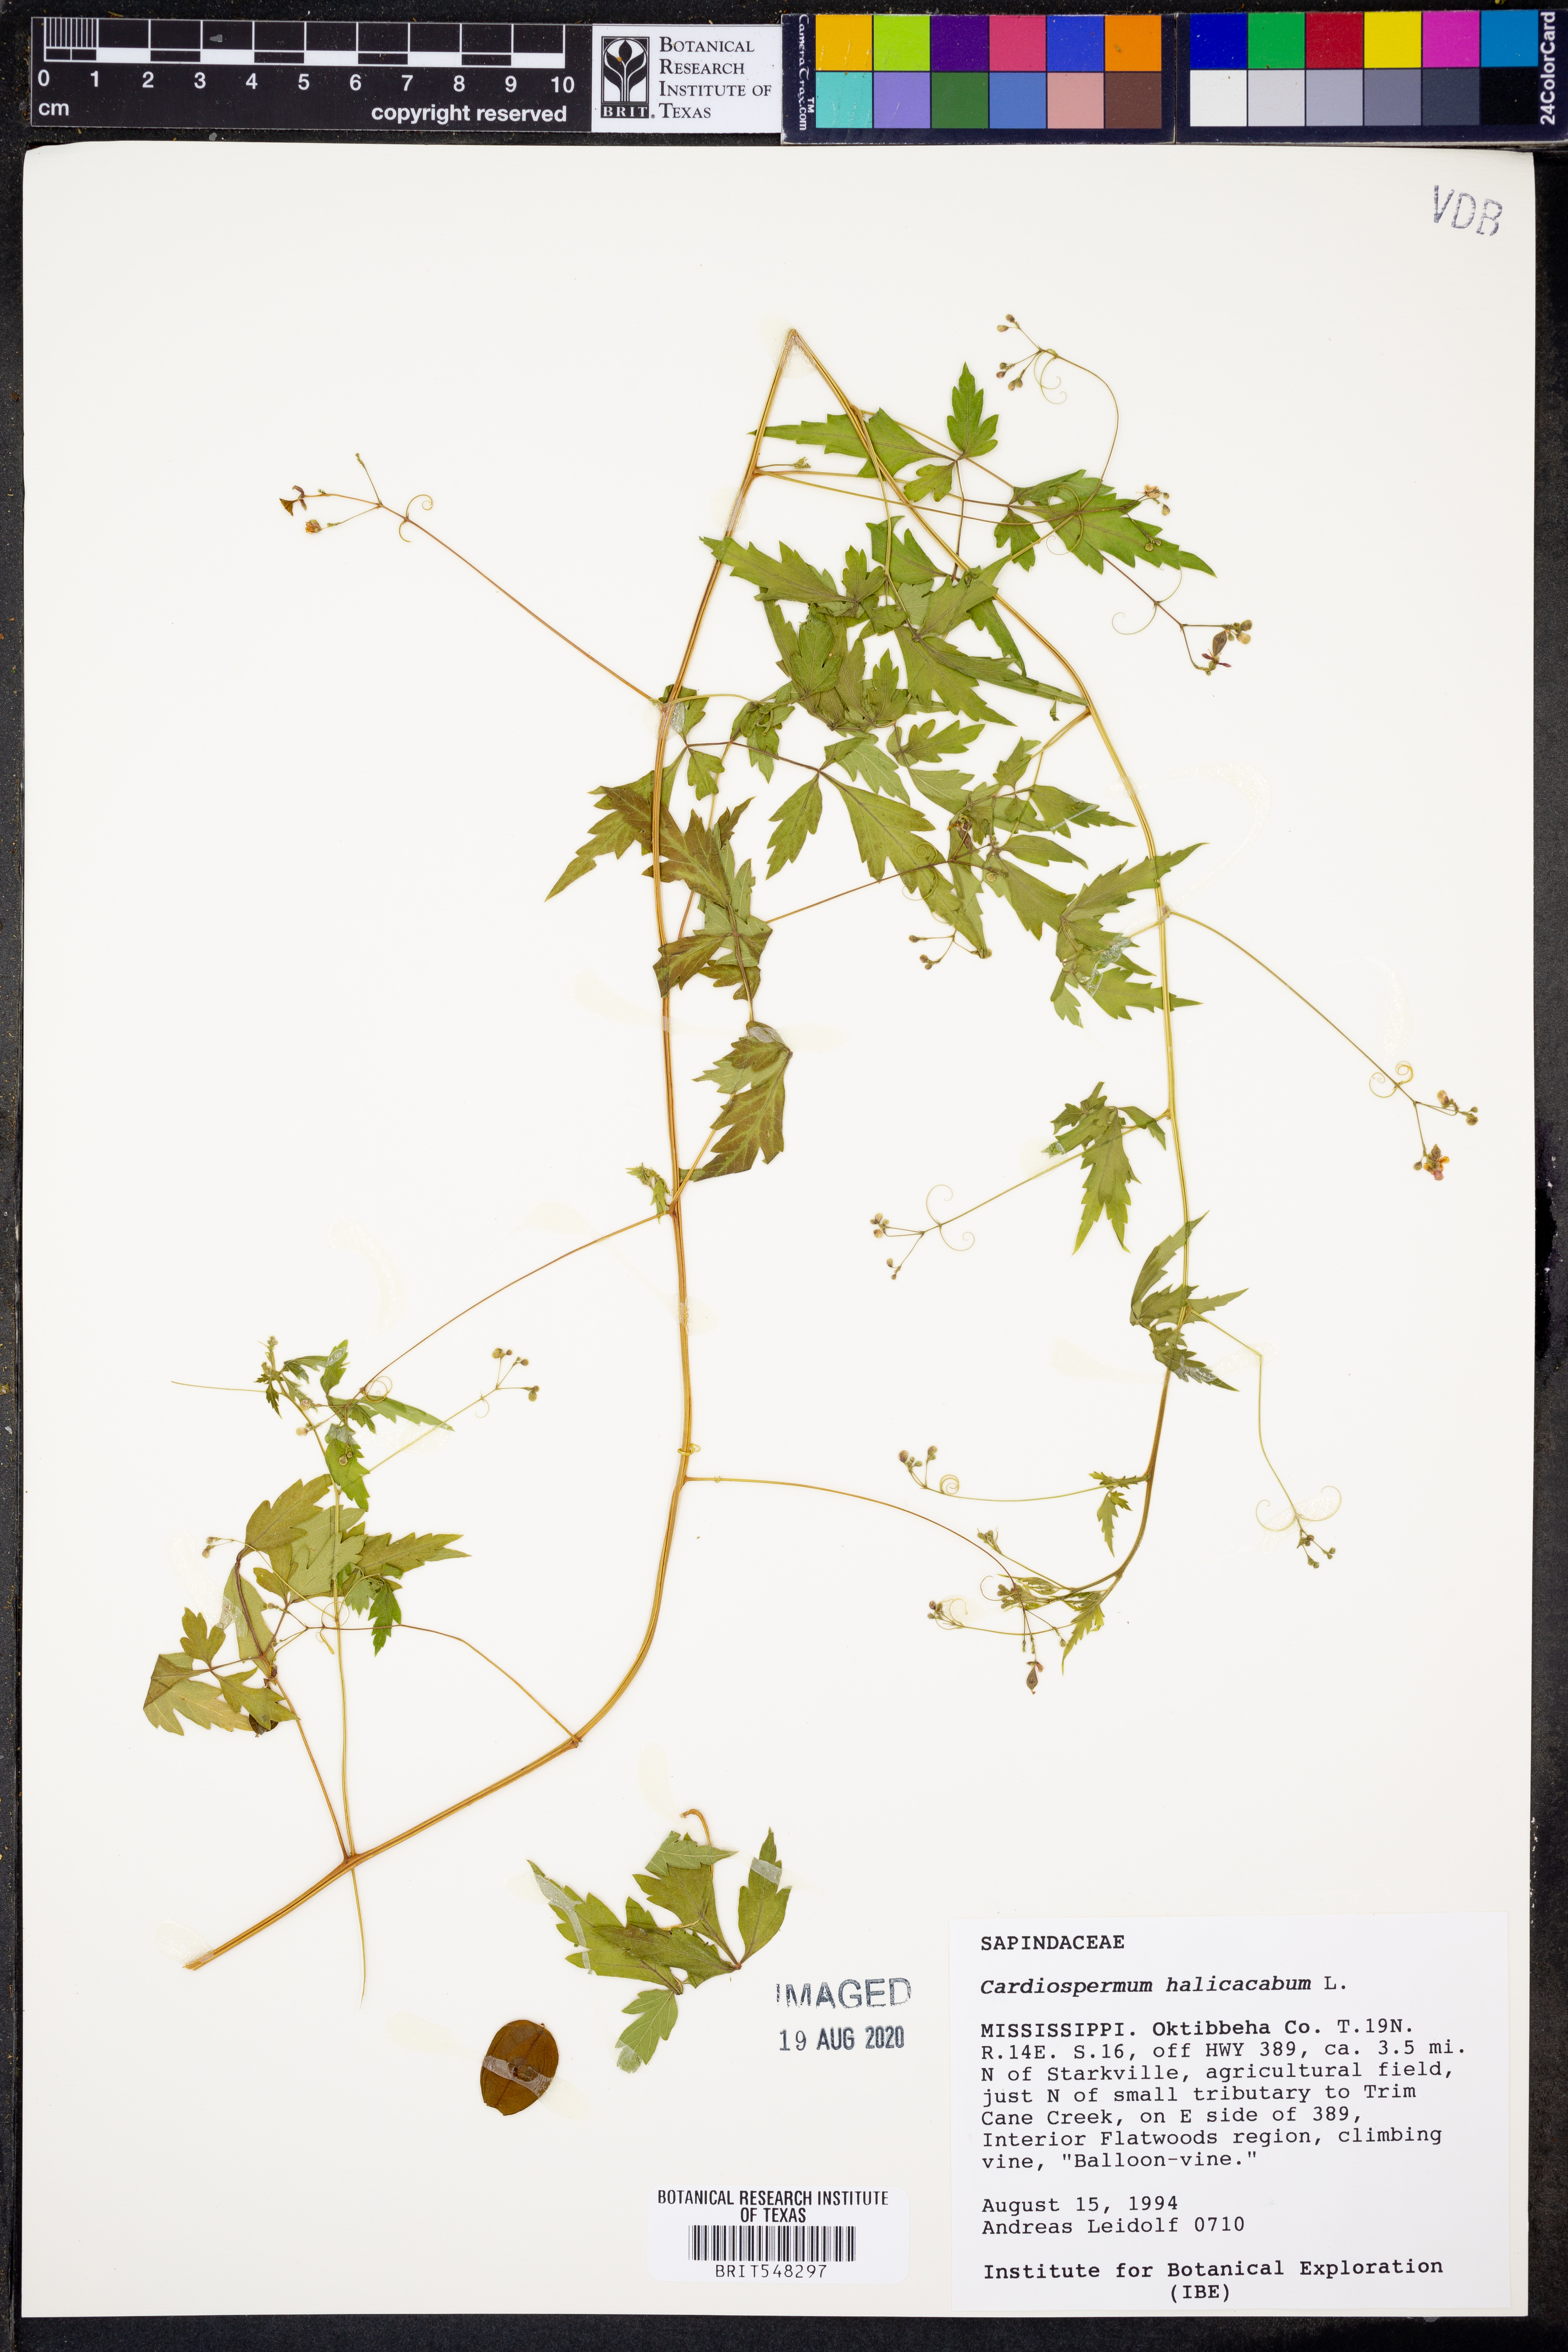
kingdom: Plantae
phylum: Tracheophyta
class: Magnoliopsida
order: Sapindales
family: Sapindaceae
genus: Cardiospermum
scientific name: Cardiospermum halicacabum
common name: Balloon vine
